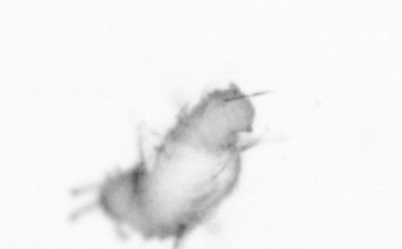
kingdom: Animalia
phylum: Annelida
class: Polychaeta
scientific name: Polychaeta
